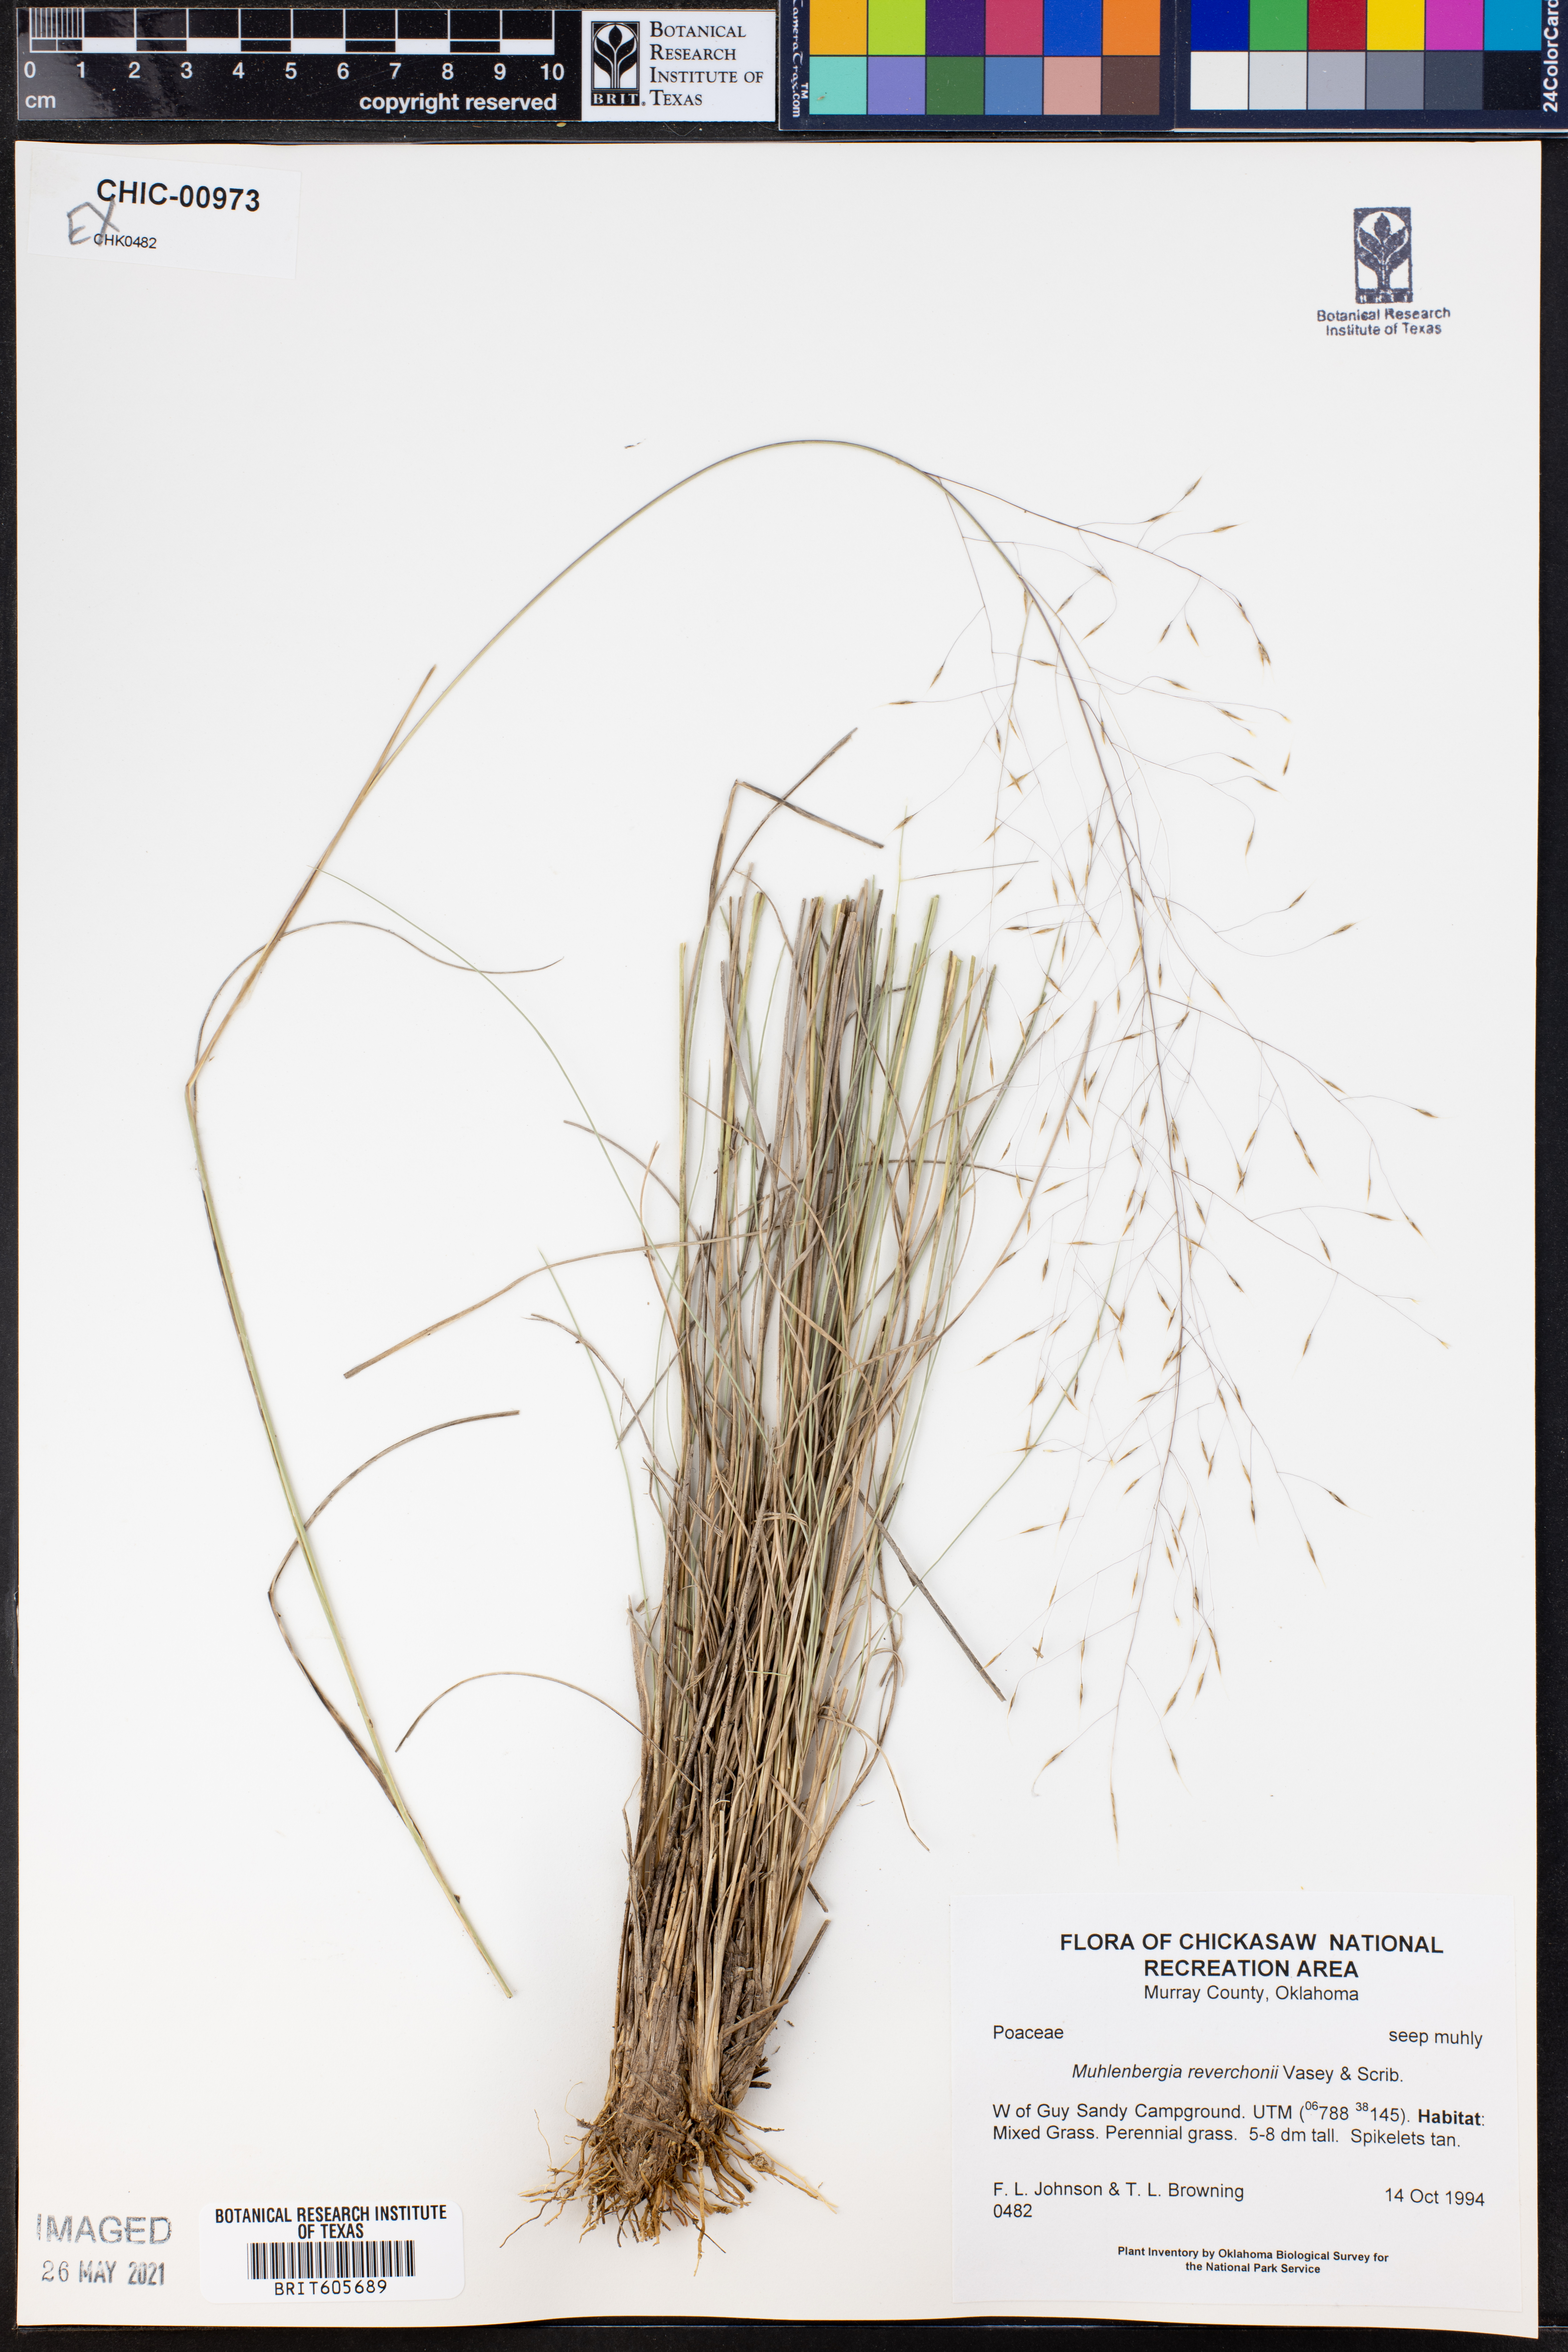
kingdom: Plantae
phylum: Tracheophyta
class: Liliopsida
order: Poales
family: Poaceae
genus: Muhlenbergia
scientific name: Muhlenbergia reverchonii
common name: Seep muhly
